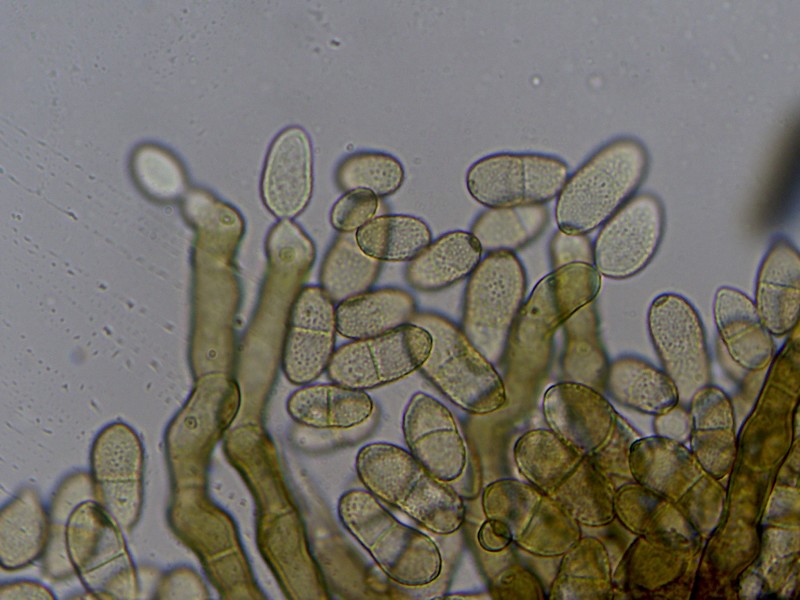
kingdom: Fungi
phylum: Ascomycota
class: Dothideomycetes
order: Capnodiales
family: Cladosporiaceae
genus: Cladosporium
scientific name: Cladosporium macrocarpum
